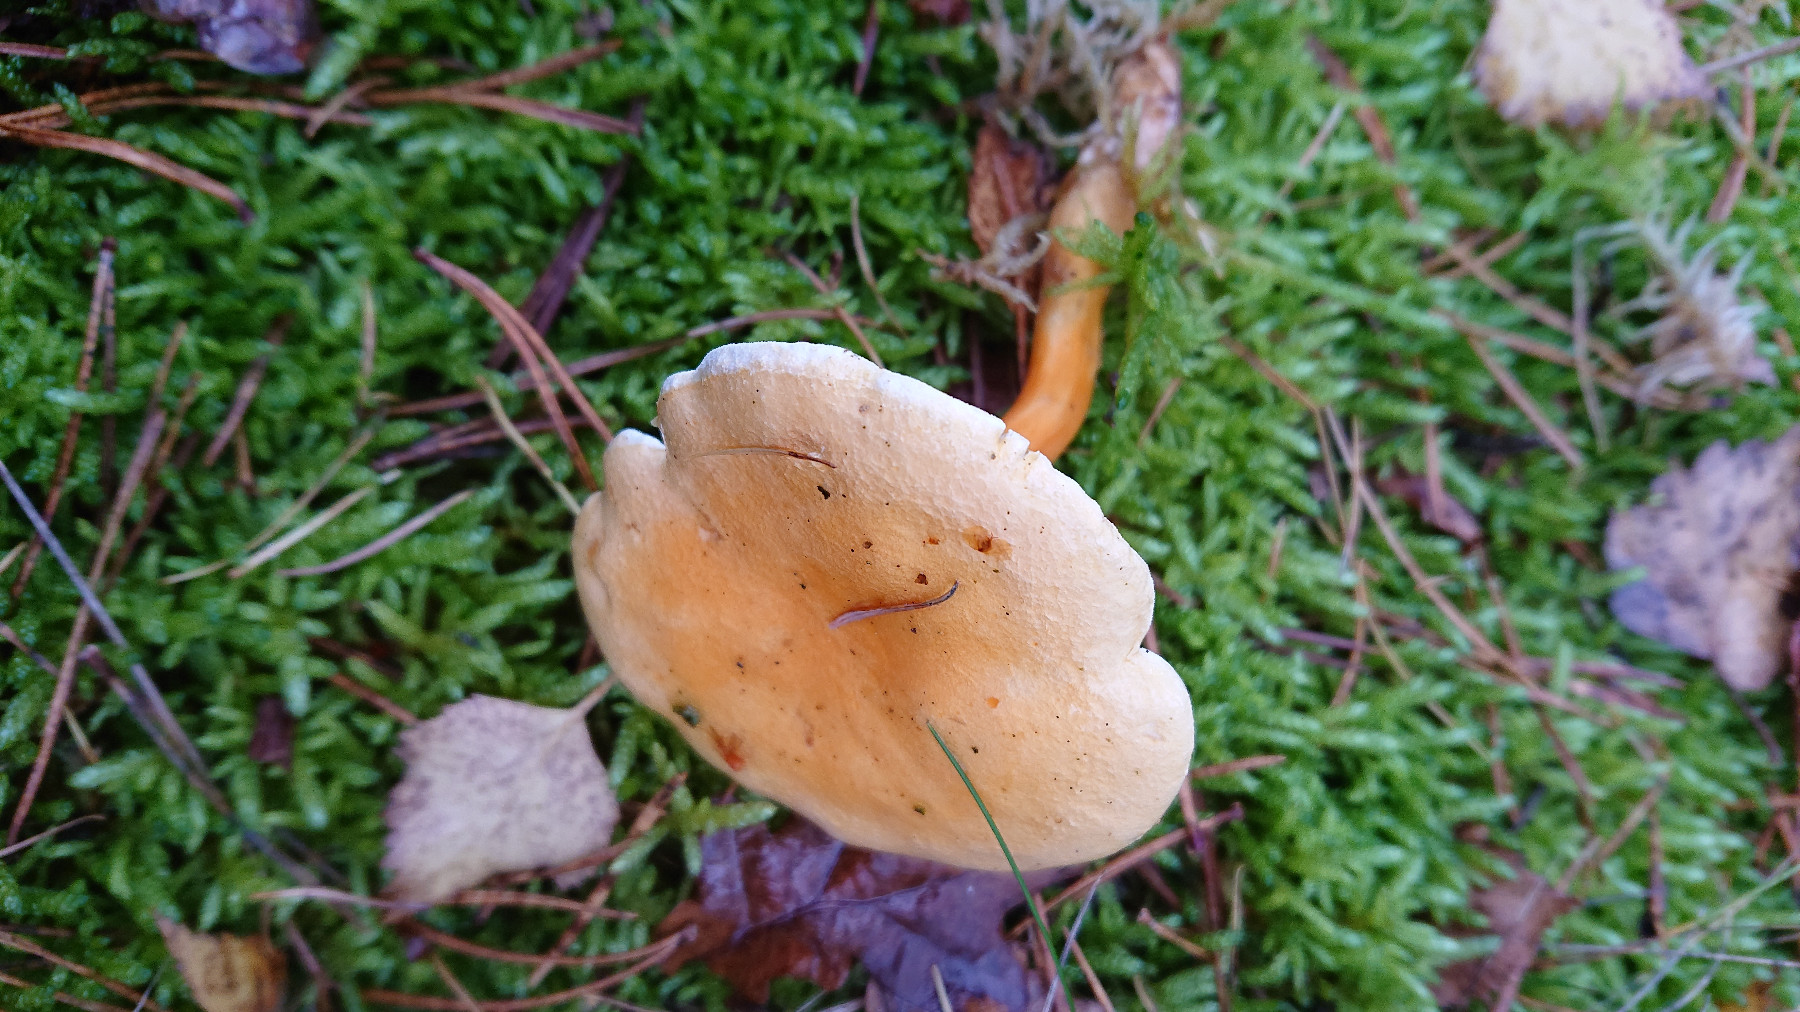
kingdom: Fungi
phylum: Basidiomycota
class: Agaricomycetes
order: Boletales
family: Hygrophoropsidaceae
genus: Hygrophoropsis
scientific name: Hygrophoropsis aurantiaca
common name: almindelig orangekantarel
